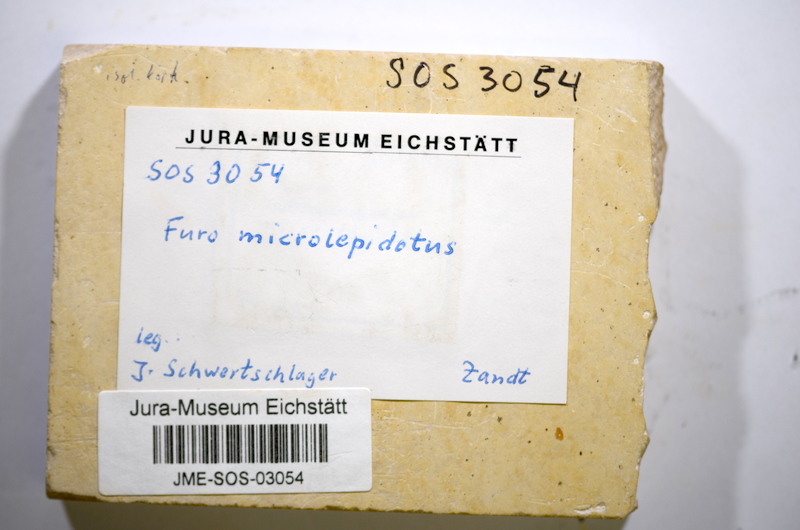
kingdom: Animalia
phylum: Chordata
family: Ophiopsiellidae
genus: Furo
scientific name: Furo
